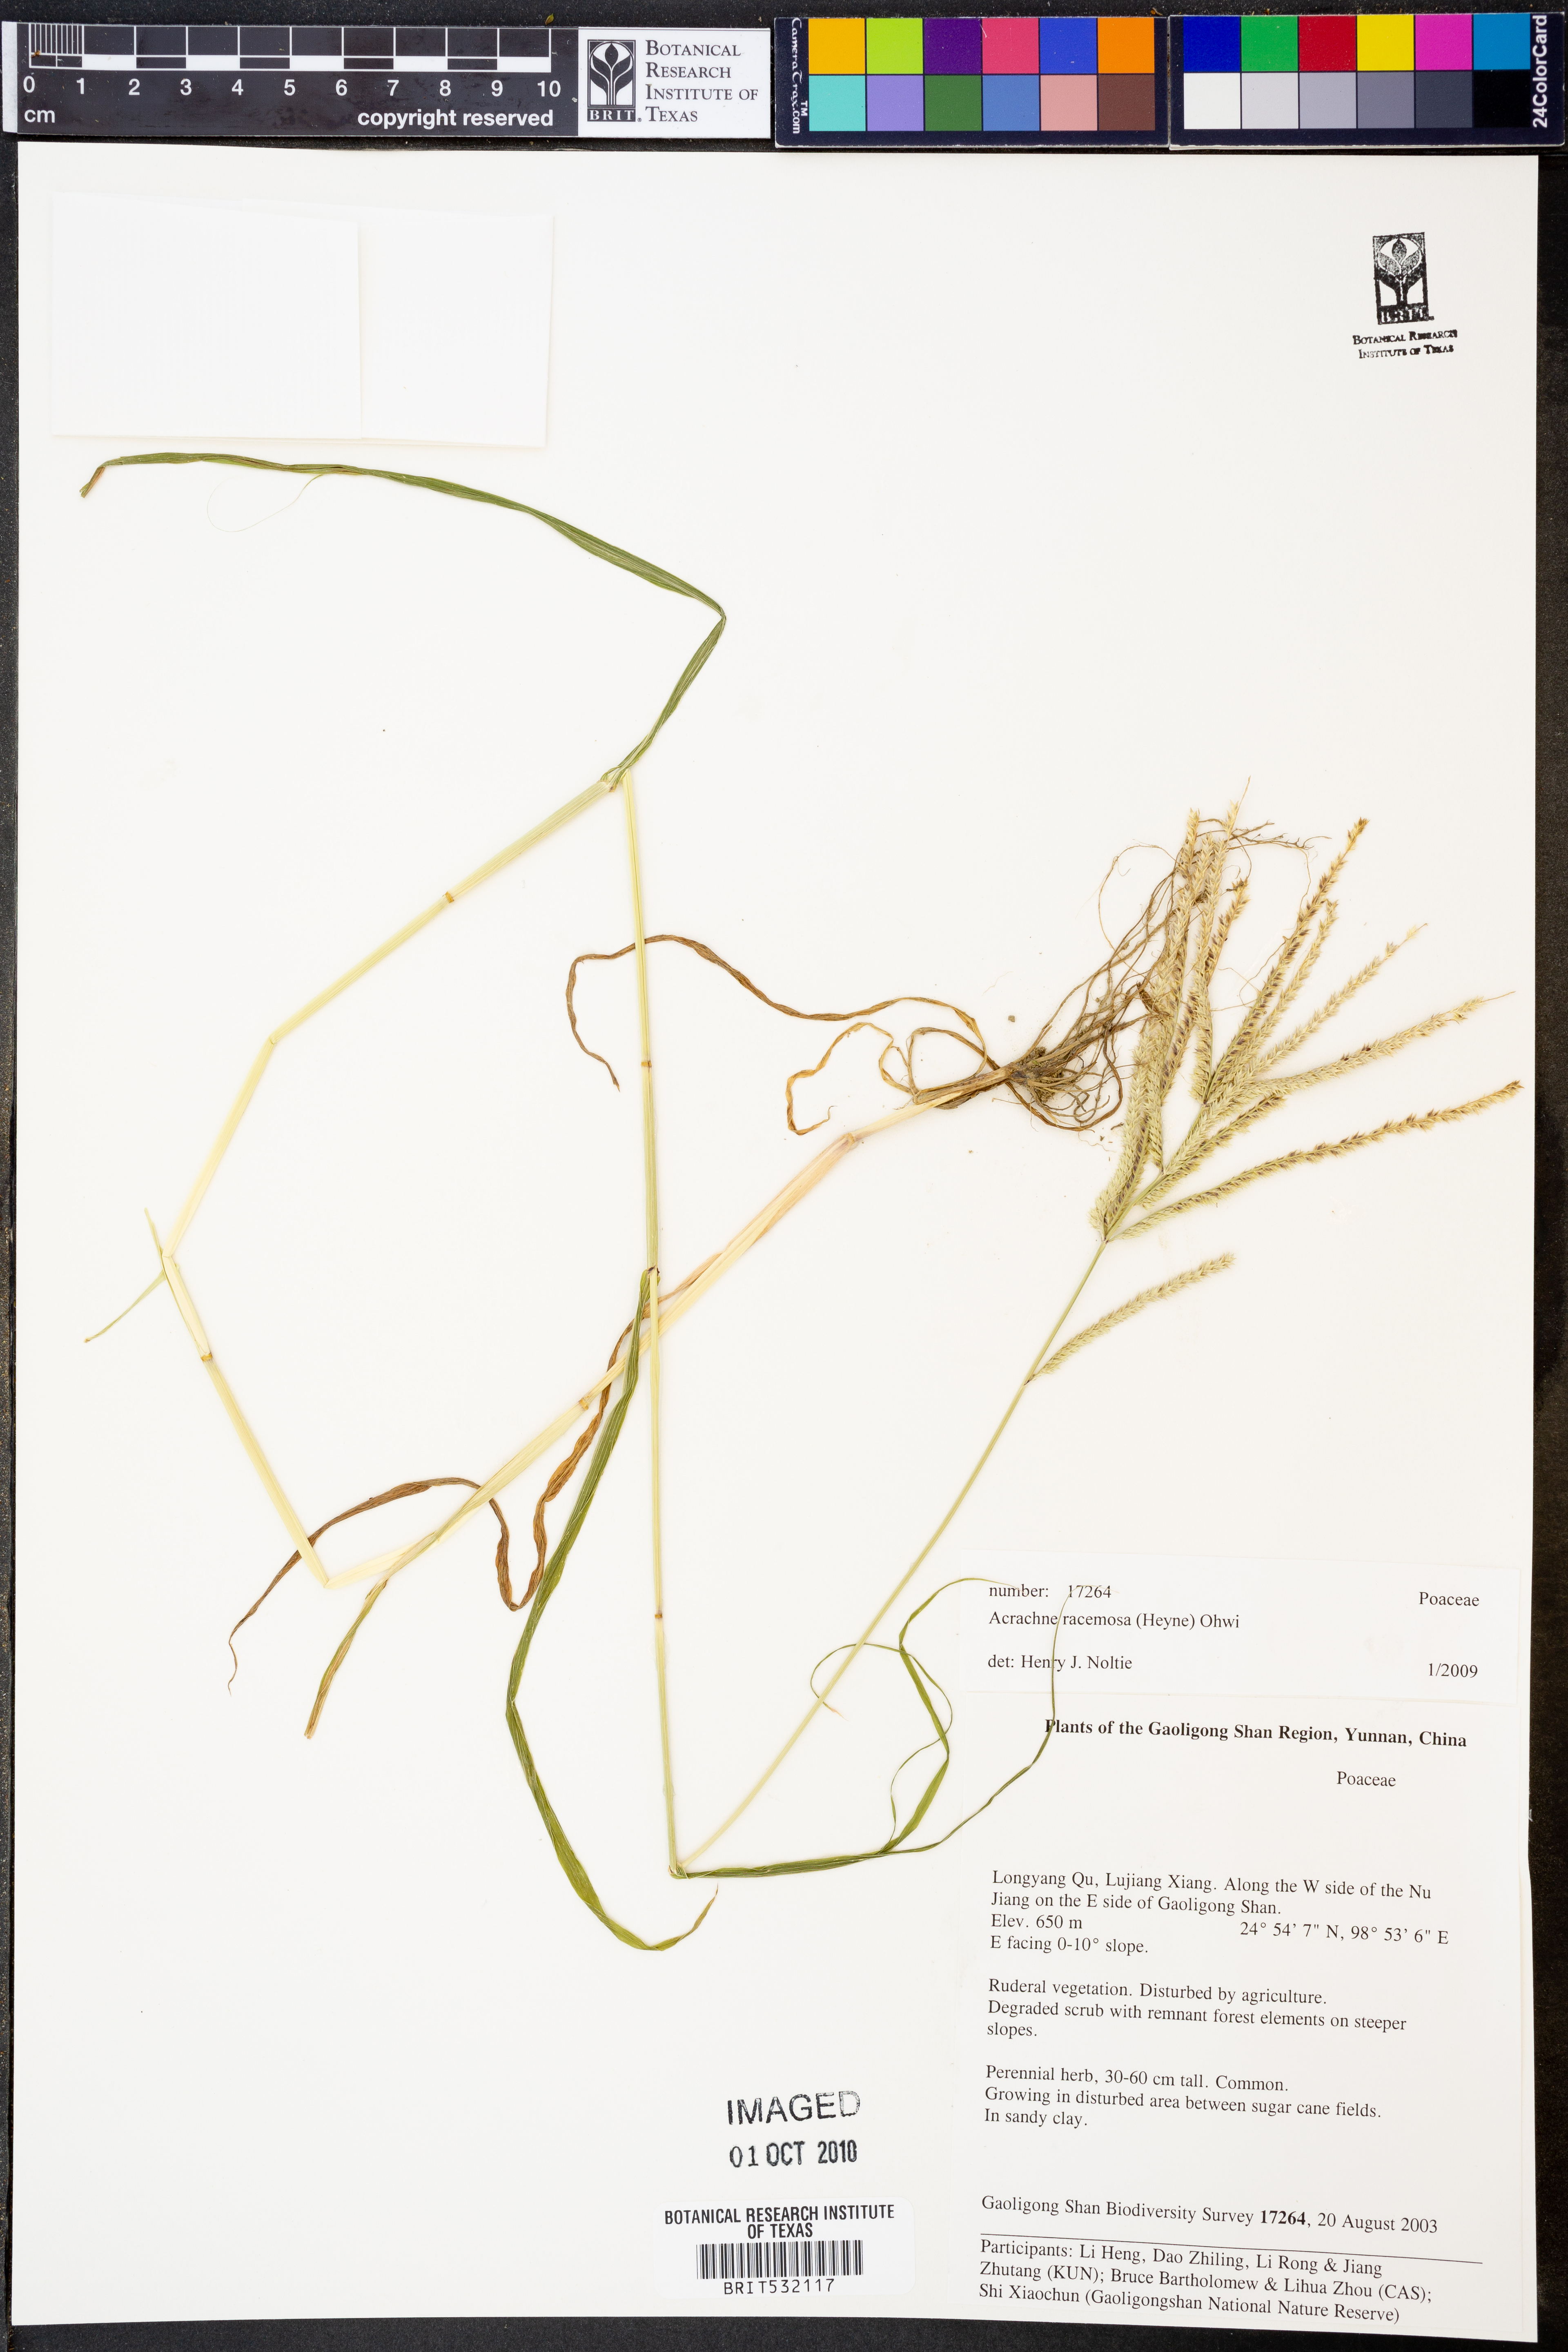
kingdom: Plantae
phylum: Tracheophyta
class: Liliopsida
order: Poales
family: Poaceae
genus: Acrachne
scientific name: Acrachne racemosa
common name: Goosegrass
